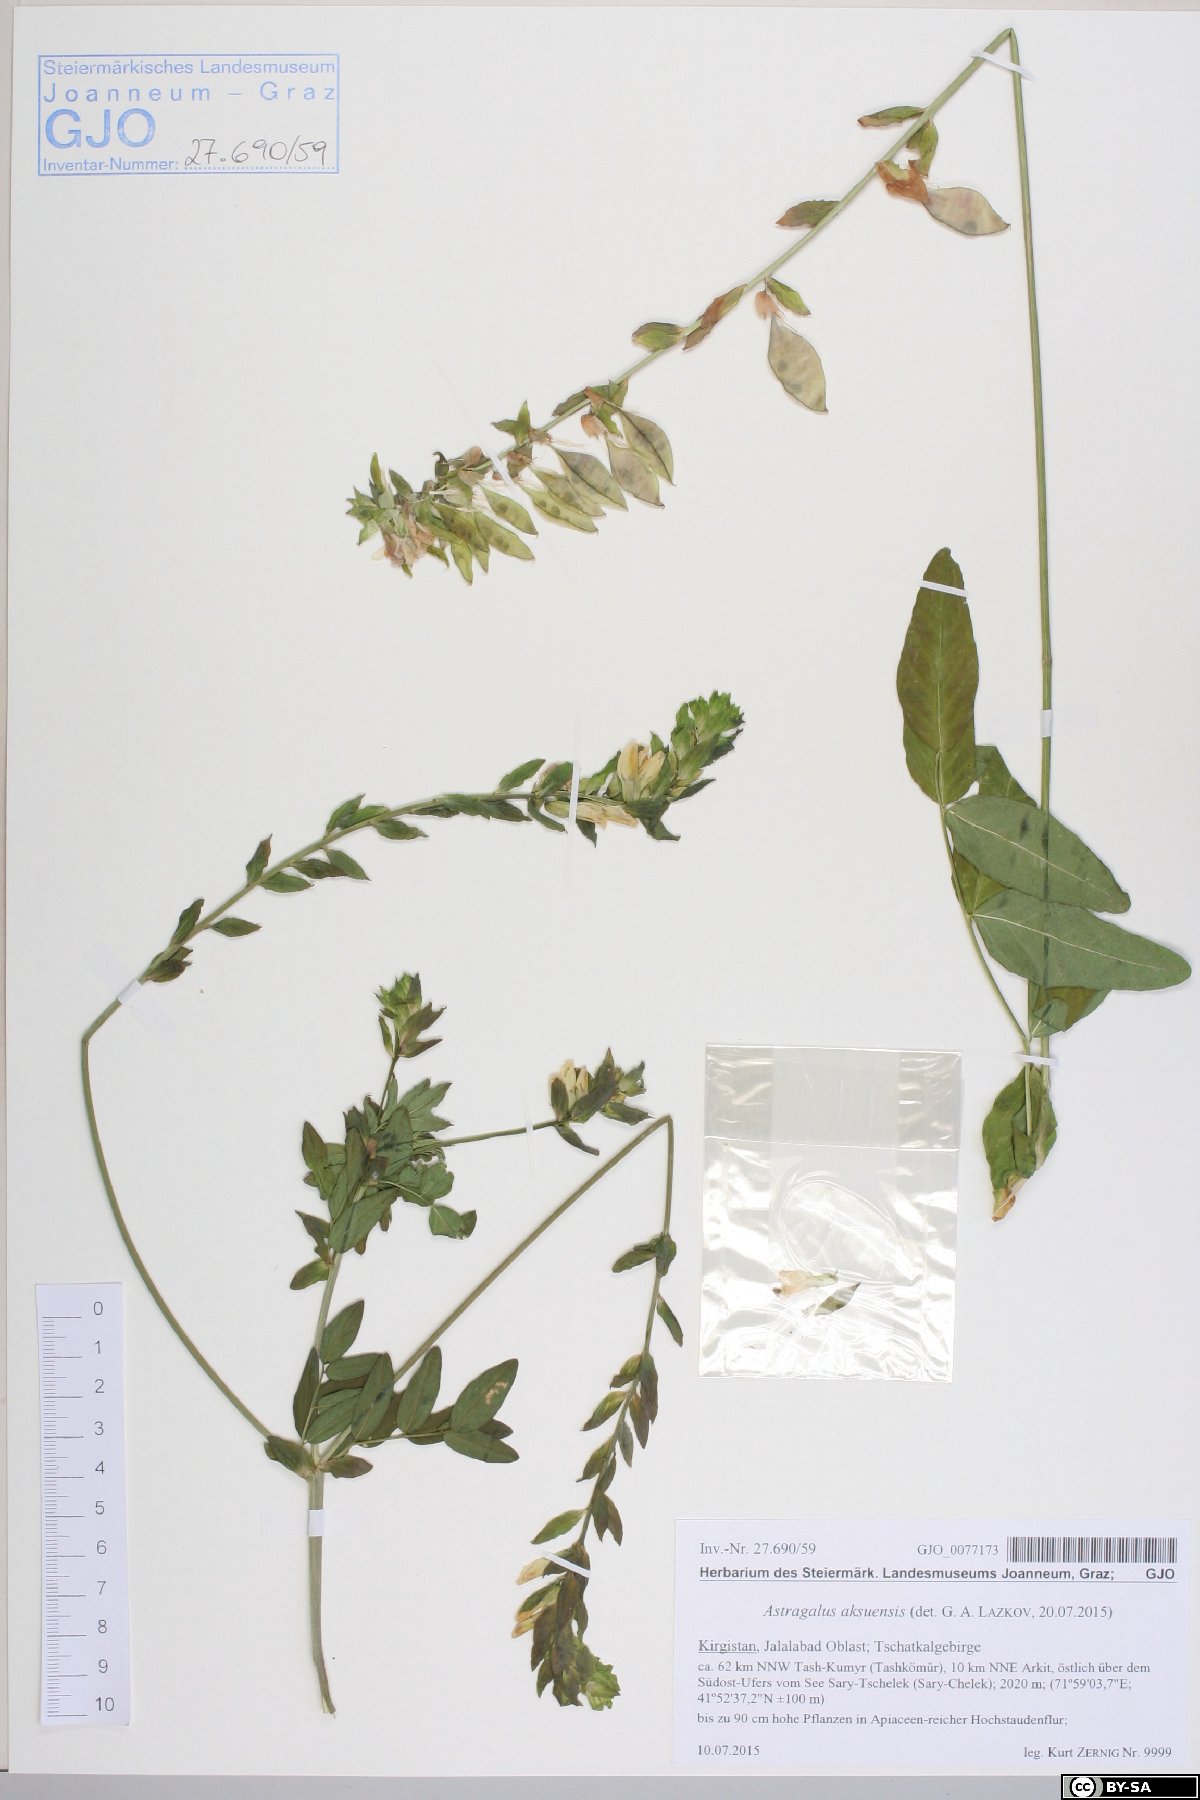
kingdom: Plantae
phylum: Tracheophyta
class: Magnoliopsida
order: Fabales
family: Fabaceae
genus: Astragalus
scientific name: Astragalus aksuensis
